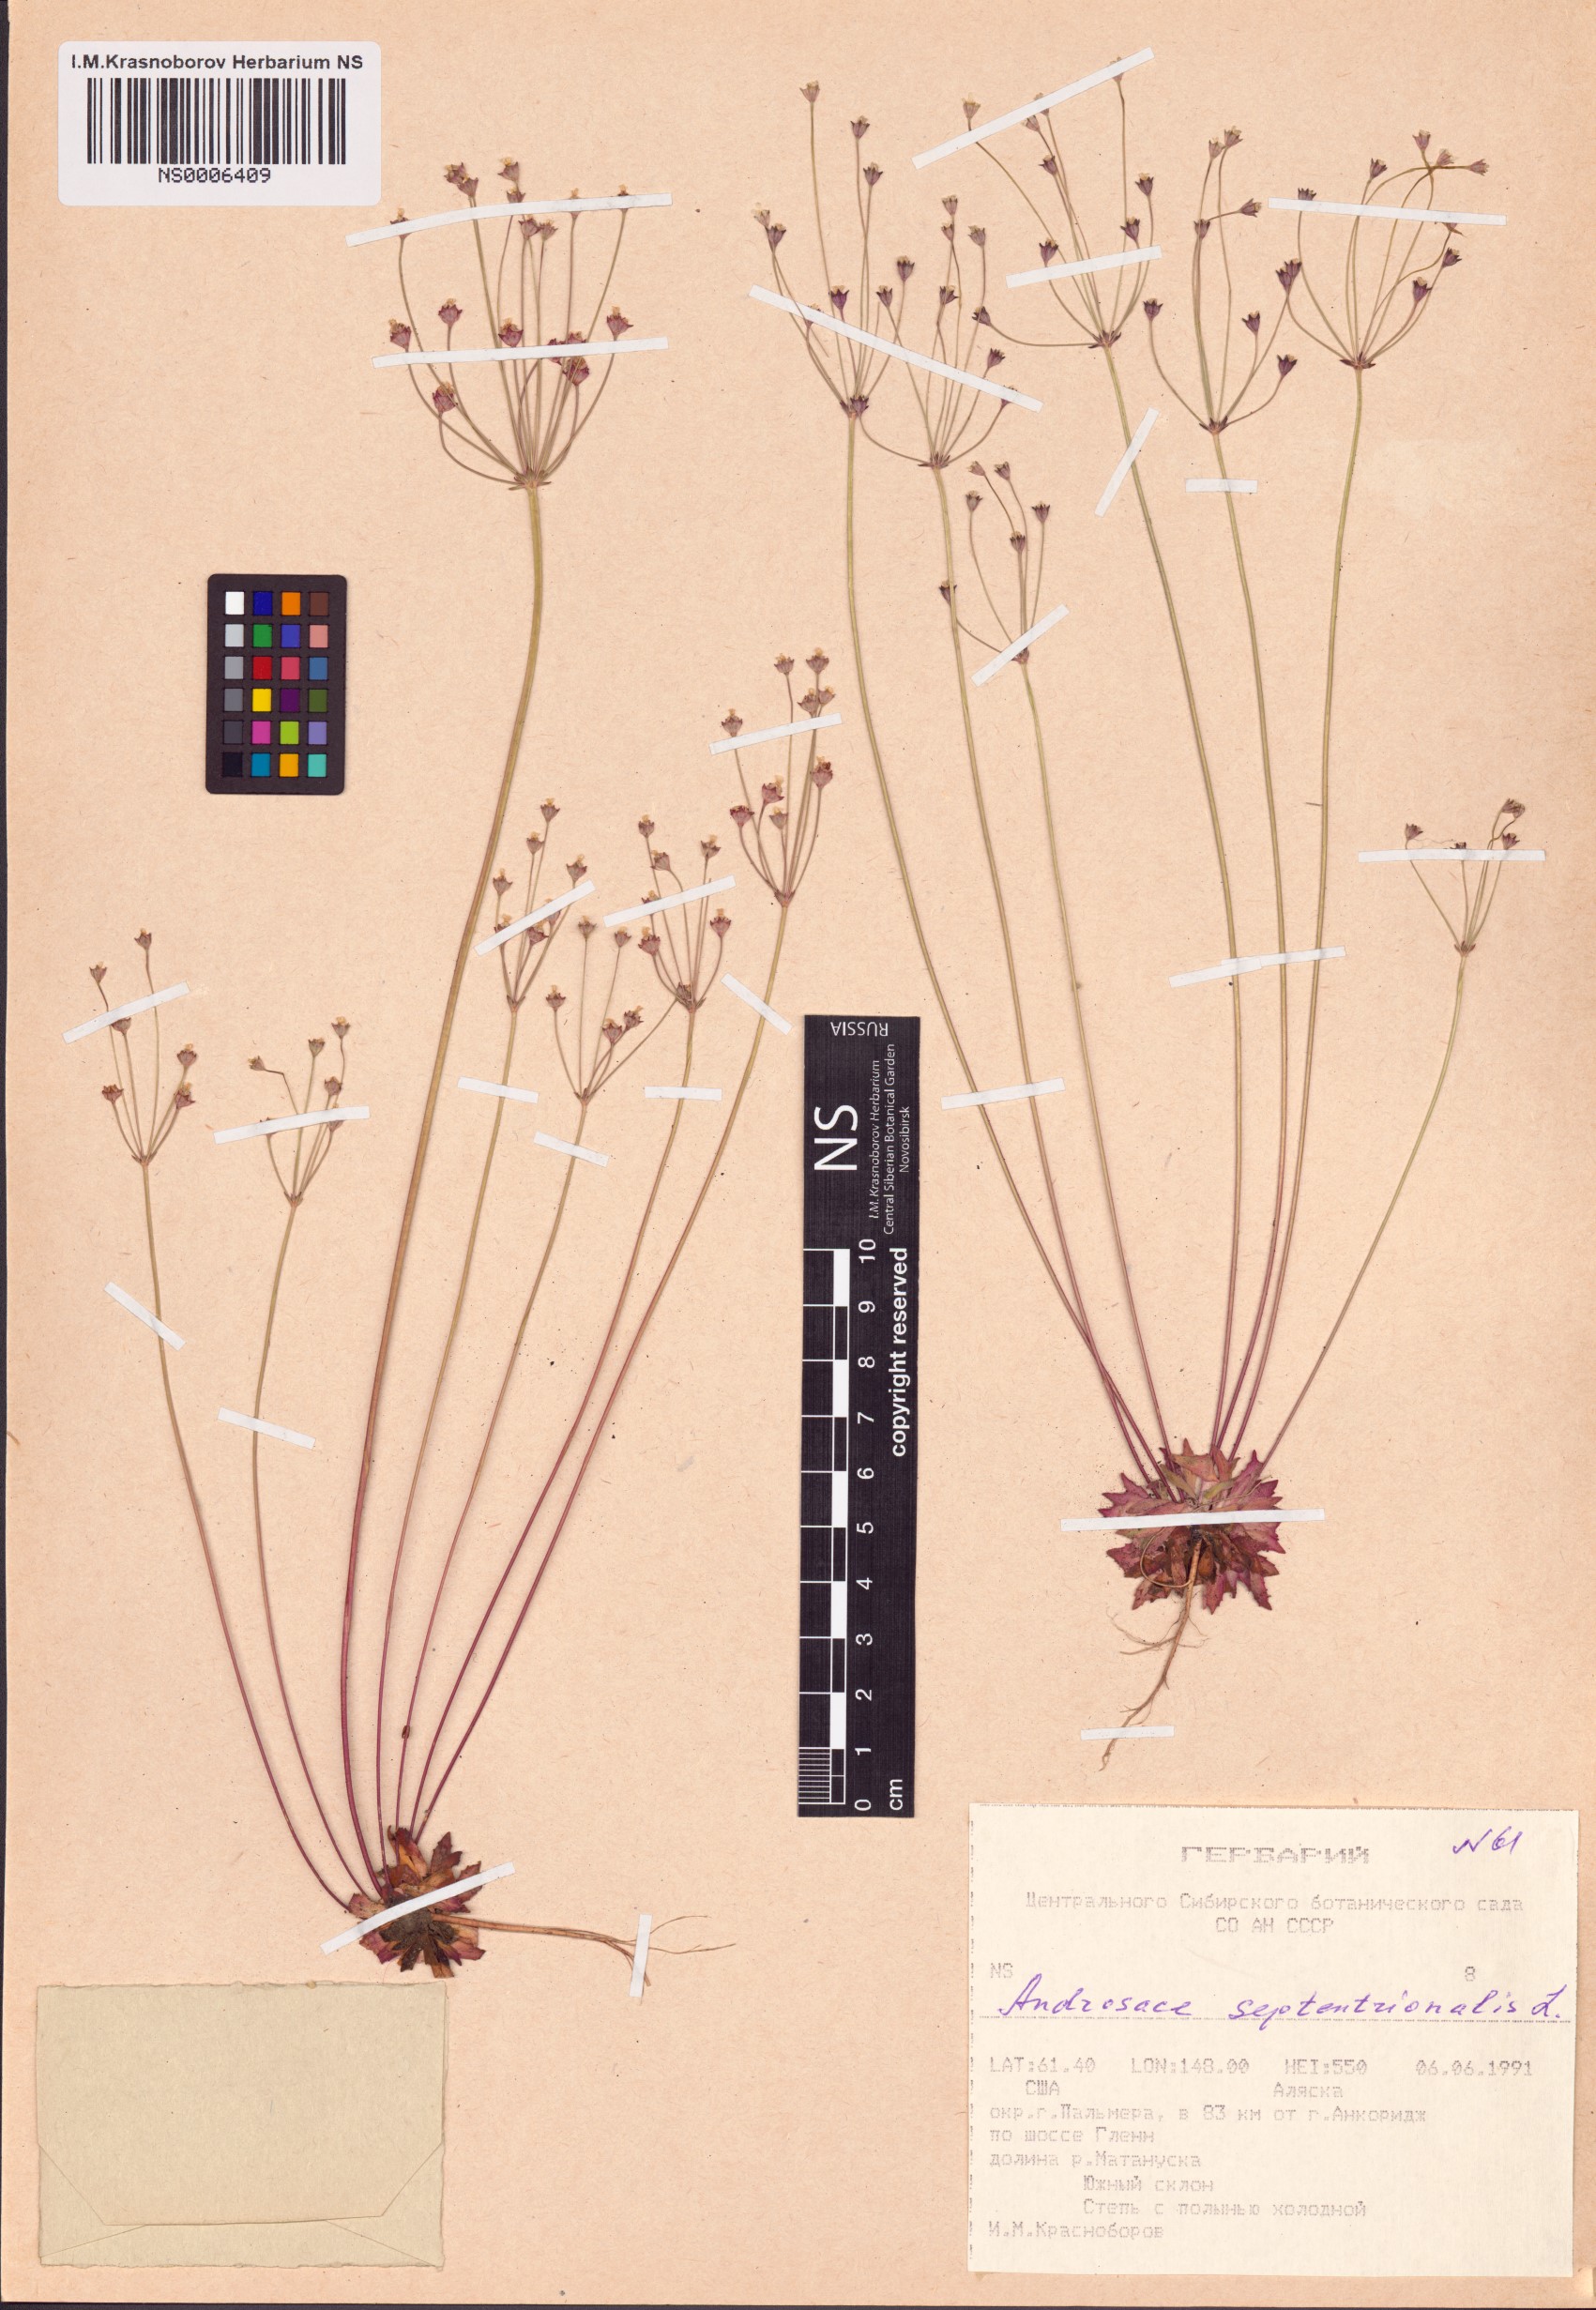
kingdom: Plantae
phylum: Tracheophyta
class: Magnoliopsida
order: Ericales
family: Primulaceae
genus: Androsace
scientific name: Androsace septentrionalis
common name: Hairy northern fairy-candelabra
